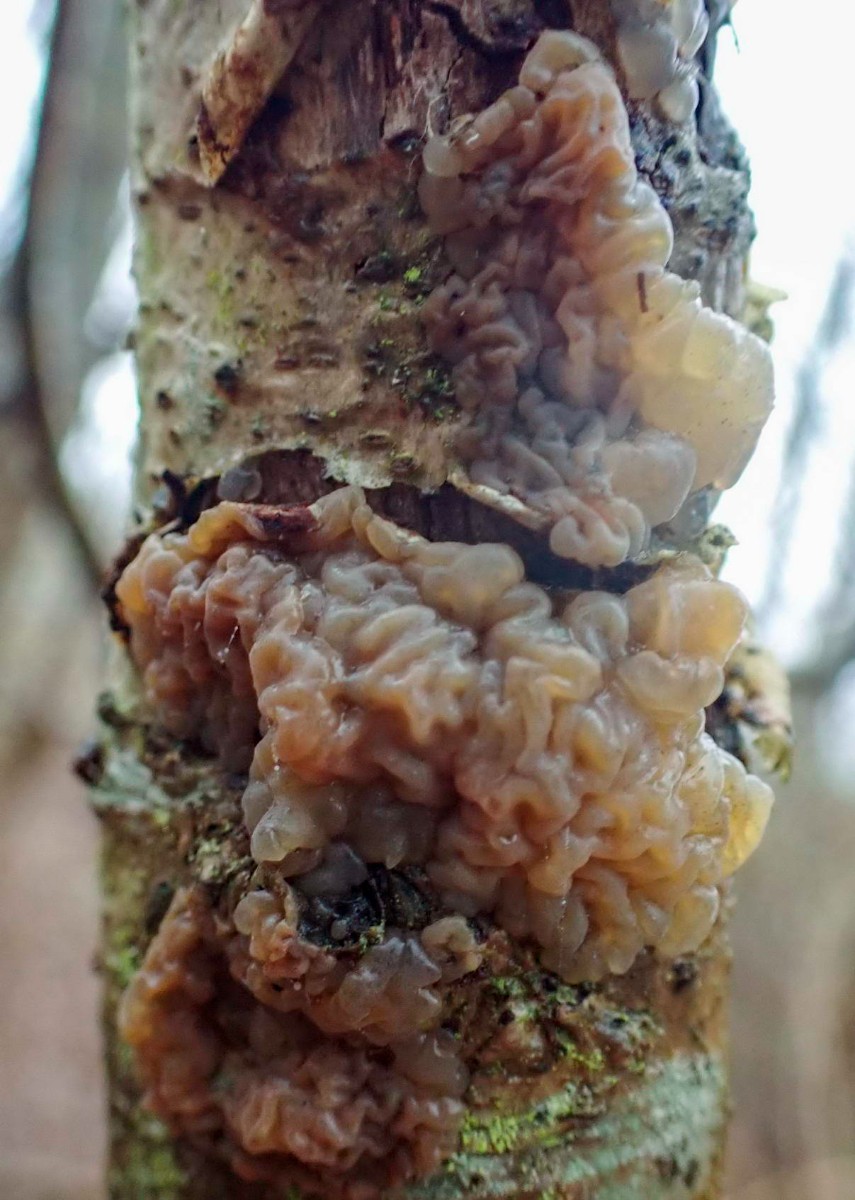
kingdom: Fungi
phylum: Basidiomycota
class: Agaricomycetes
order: Auriculariales
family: Hyaloriaceae
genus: Myxarium
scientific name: Myxarium hyalinum
